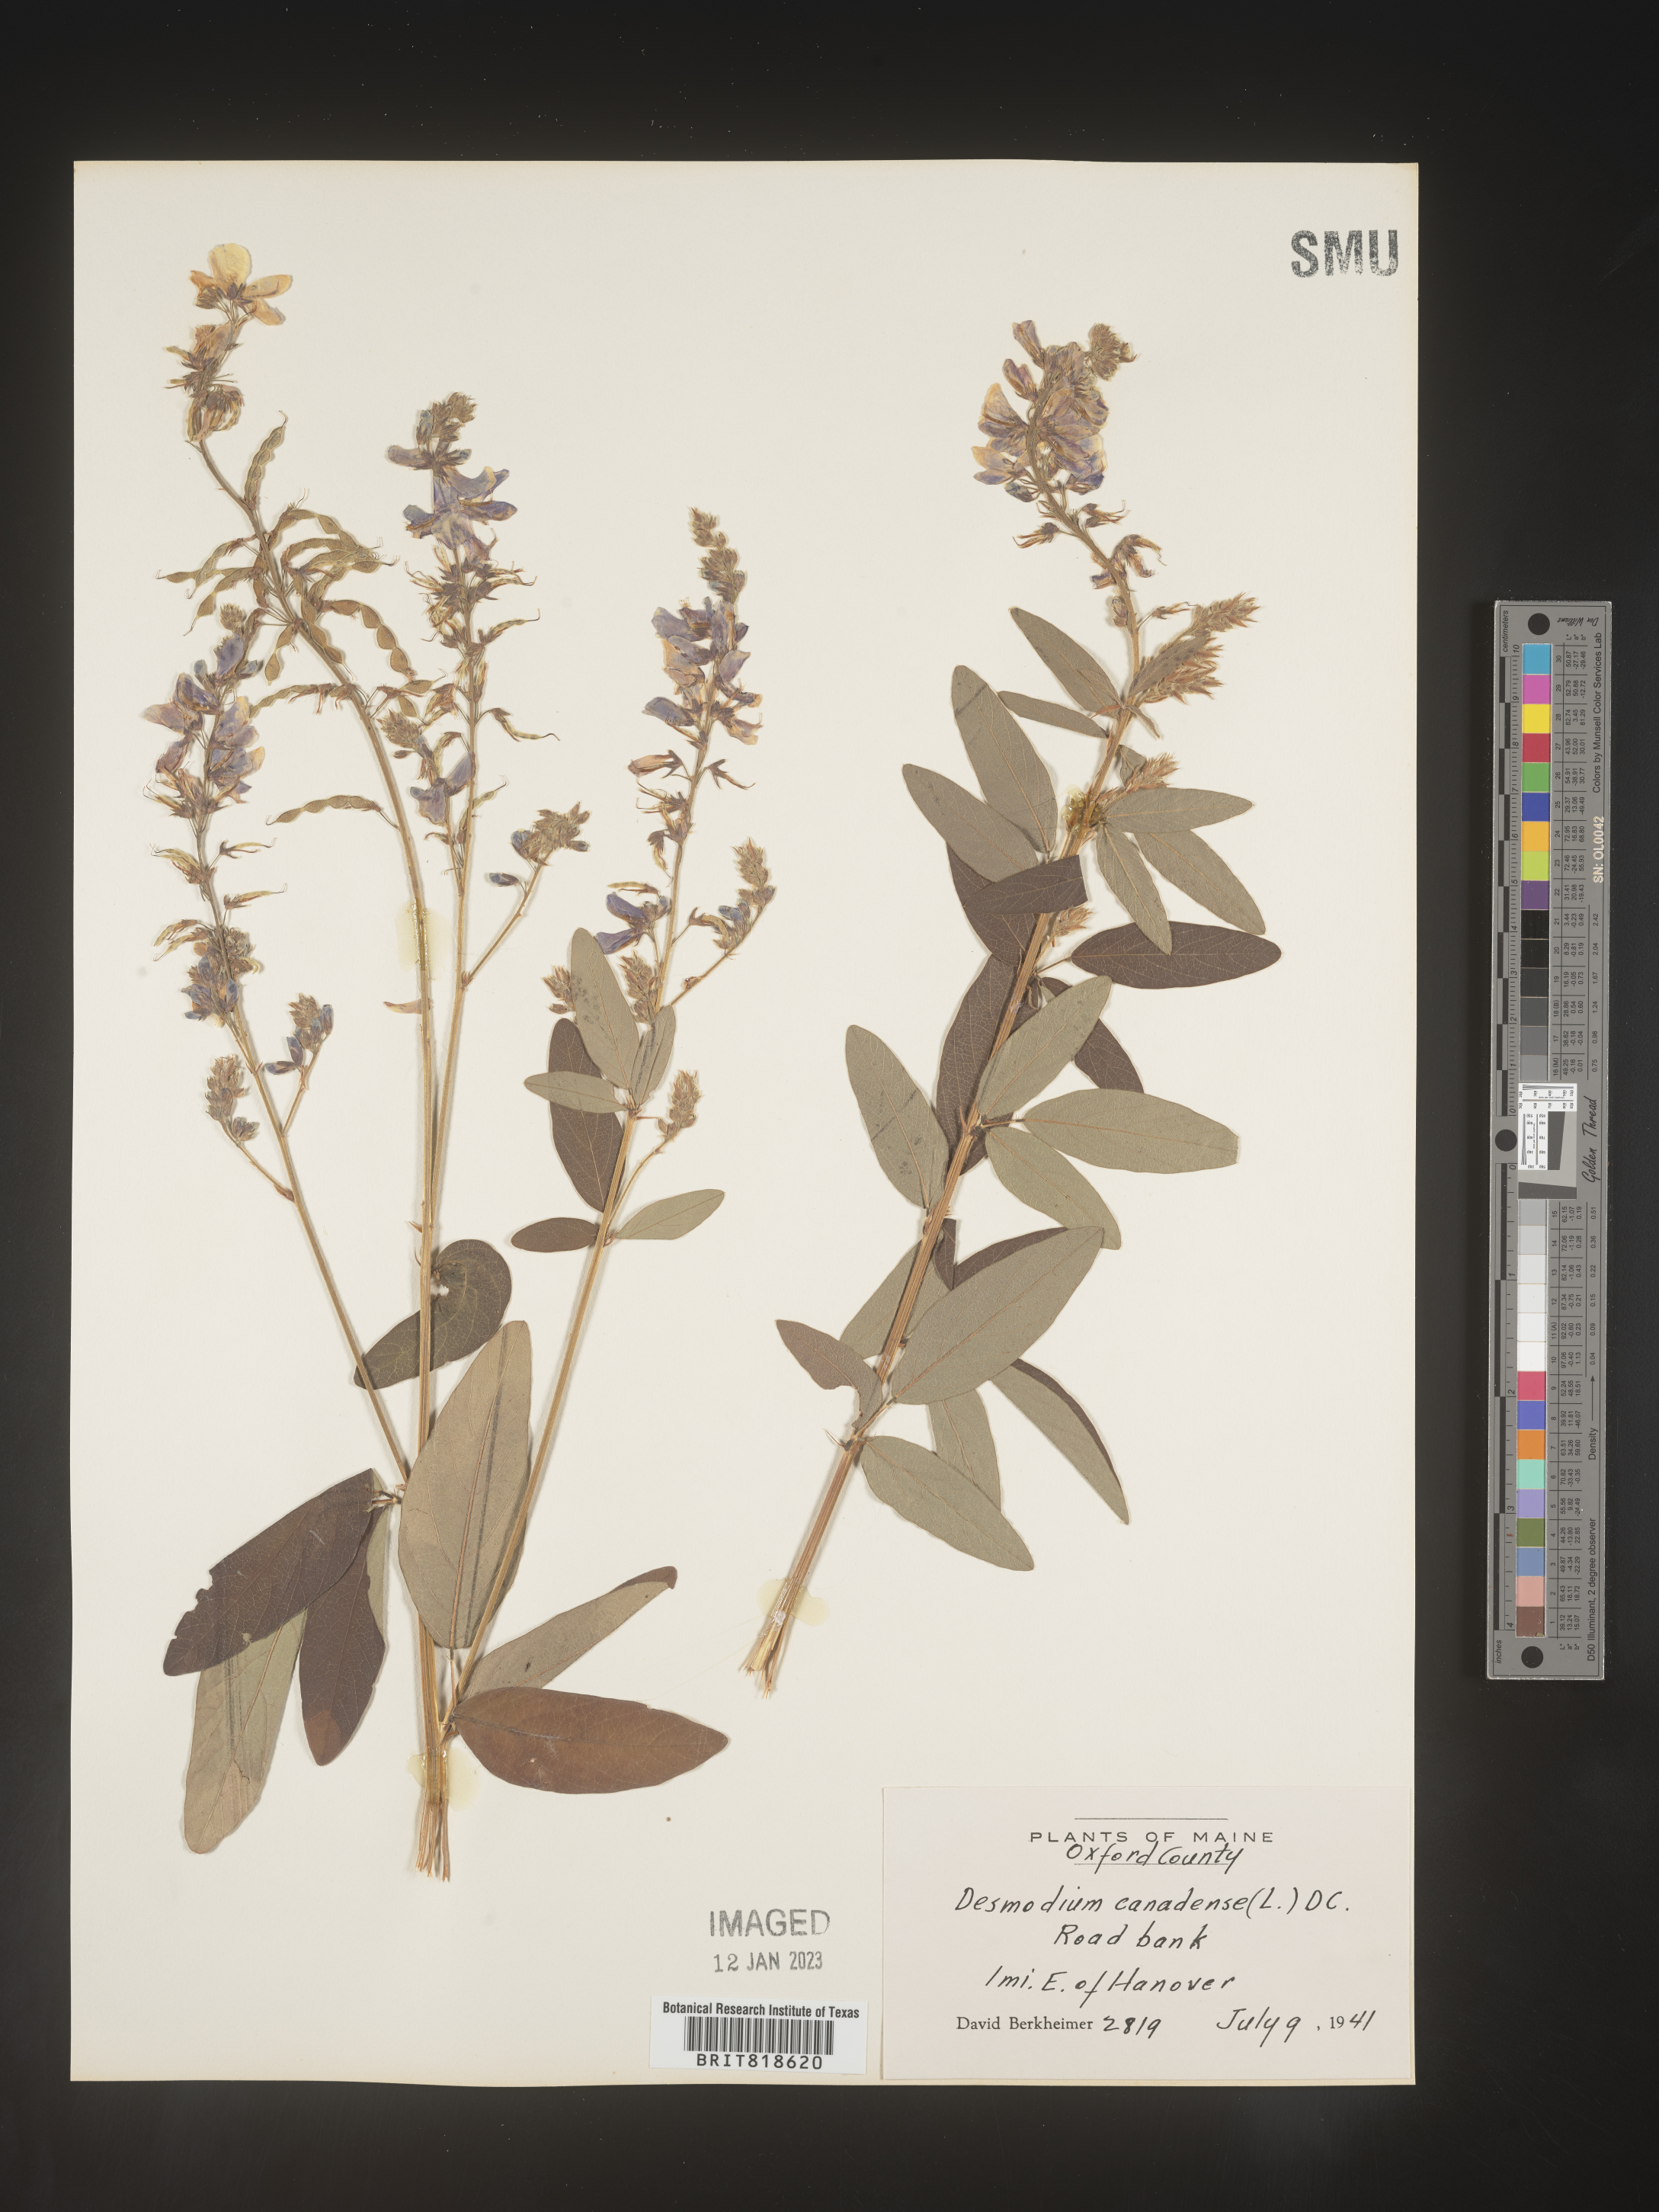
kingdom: Plantae
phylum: Tracheophyta
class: Magnoliopsida
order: Fabales
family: Fabaceae
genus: Desmodium
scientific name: Desmodium canadense
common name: Canada tick-trefoil
